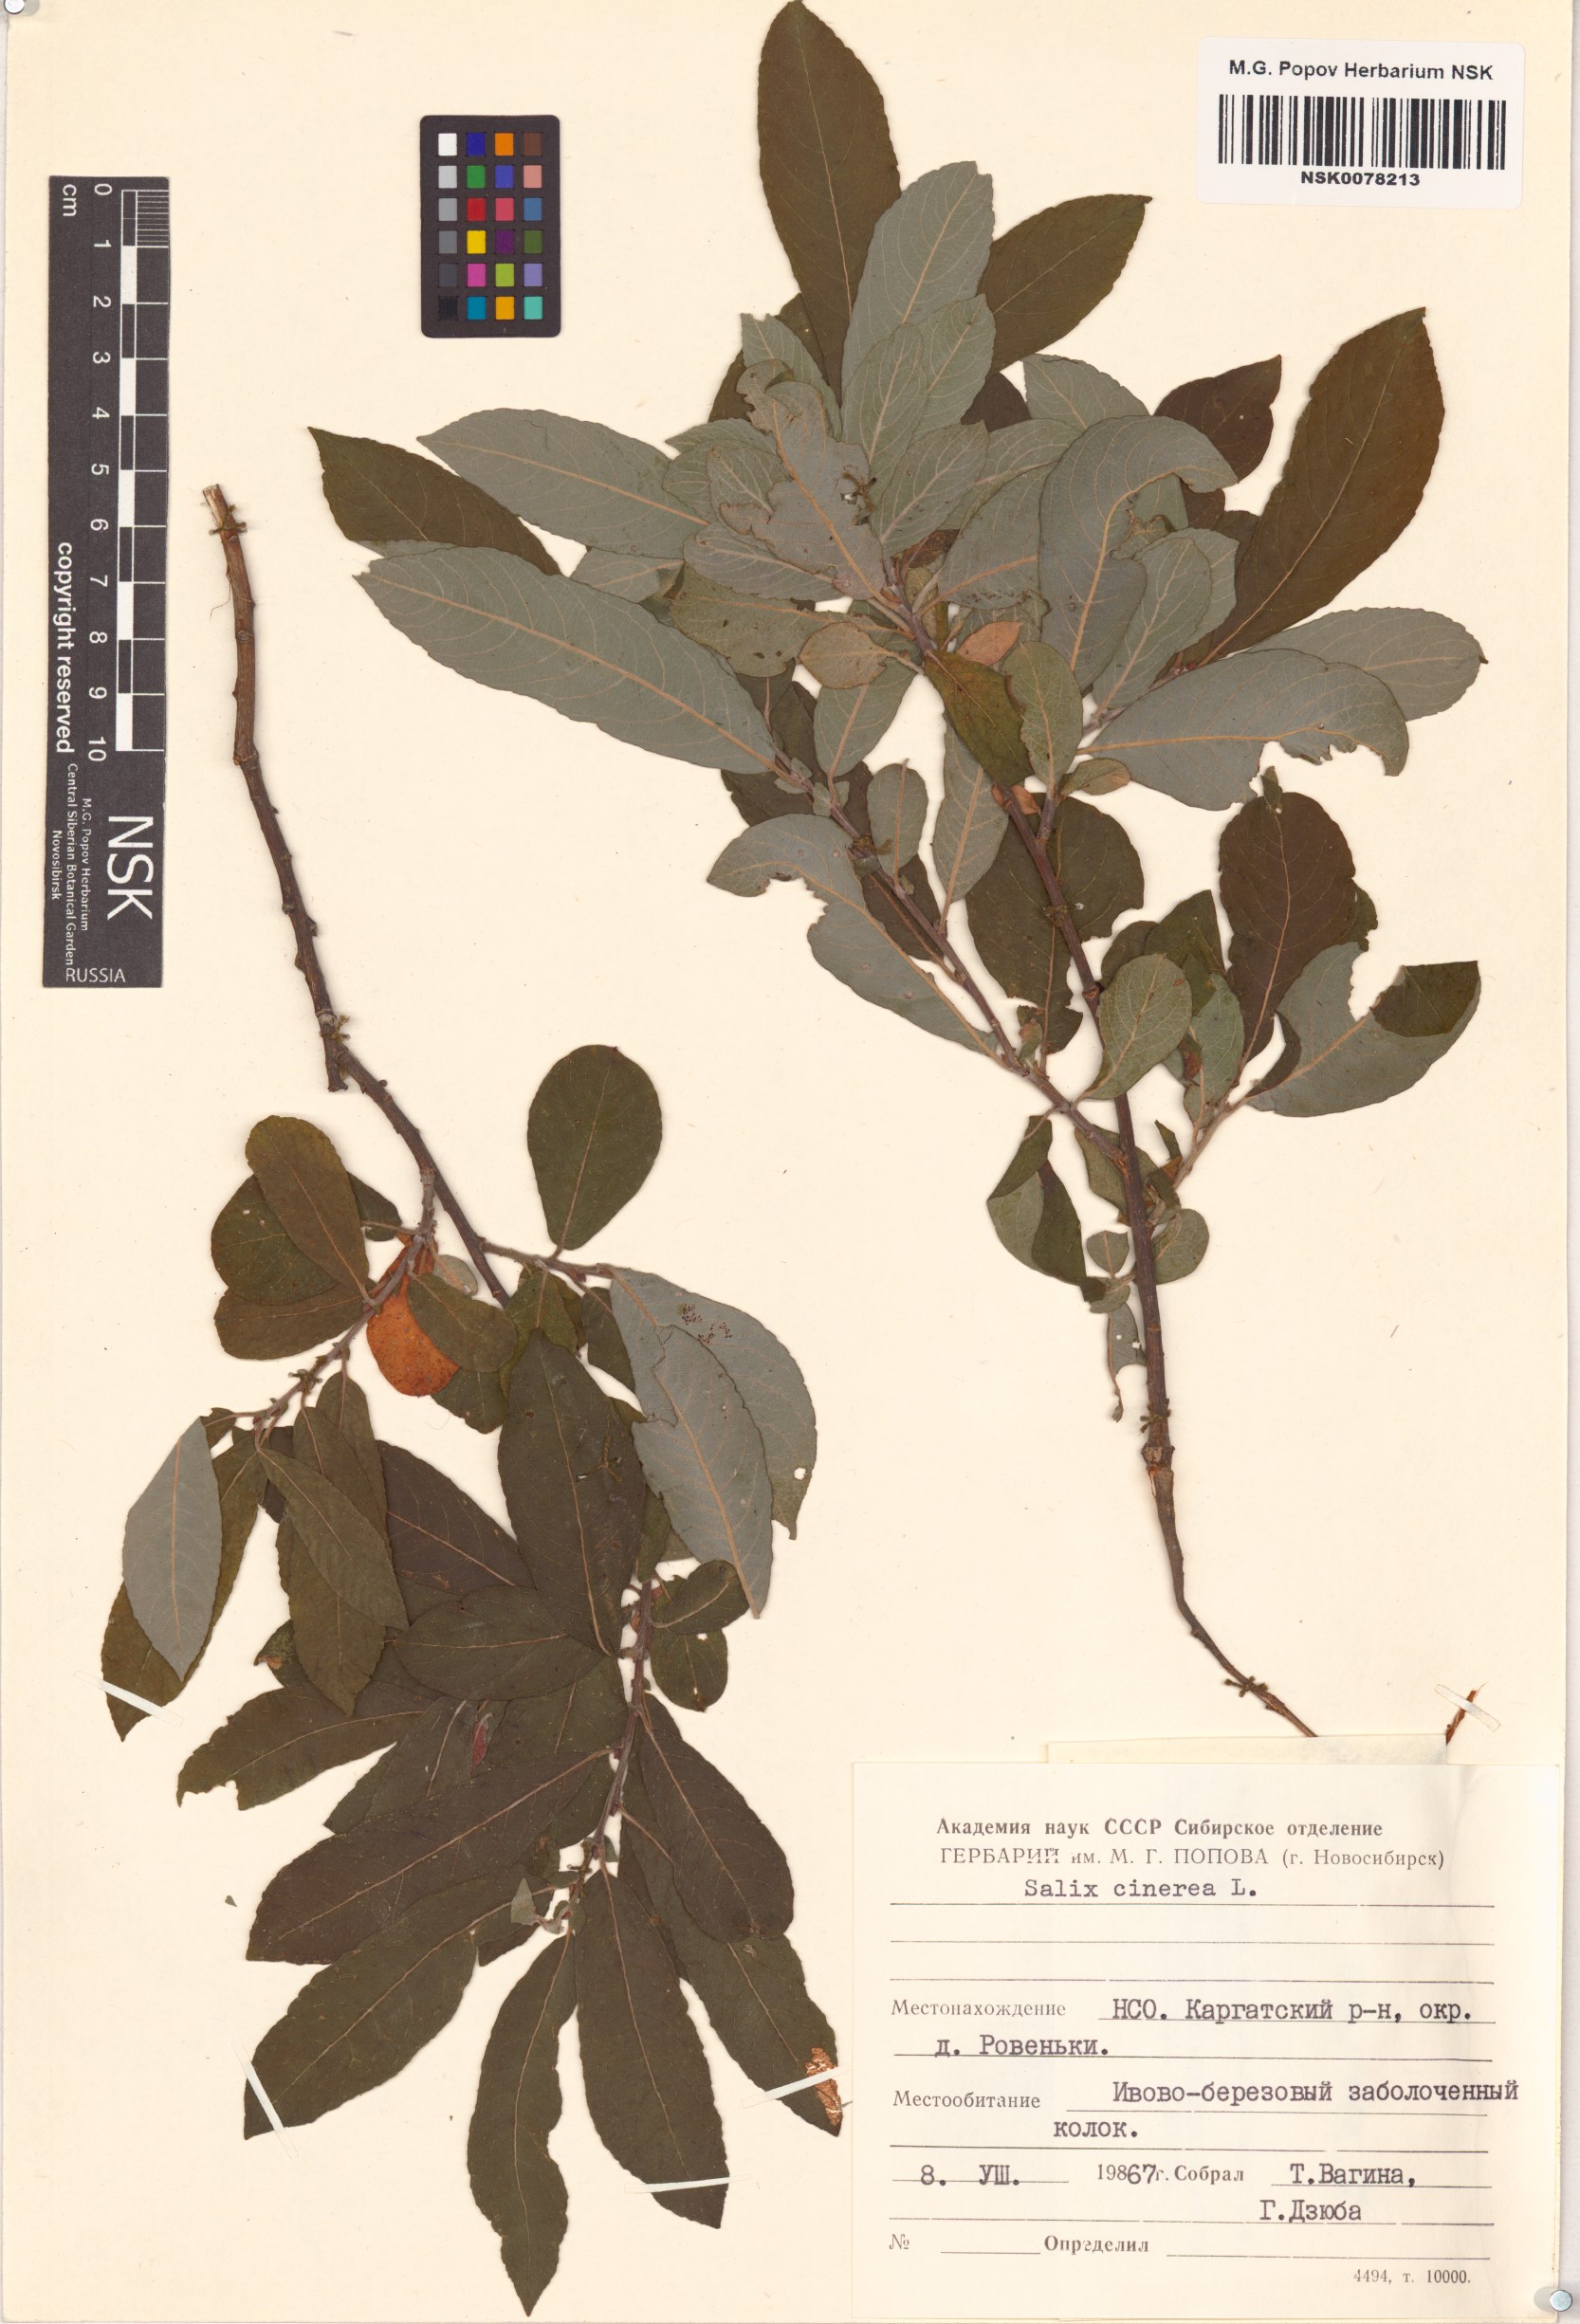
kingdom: Plantae
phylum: Tracheophyta
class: Magnoliopsida
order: Malpighiales
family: Salicaceae
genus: Salix
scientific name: Salix cinerea
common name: Common sallow
